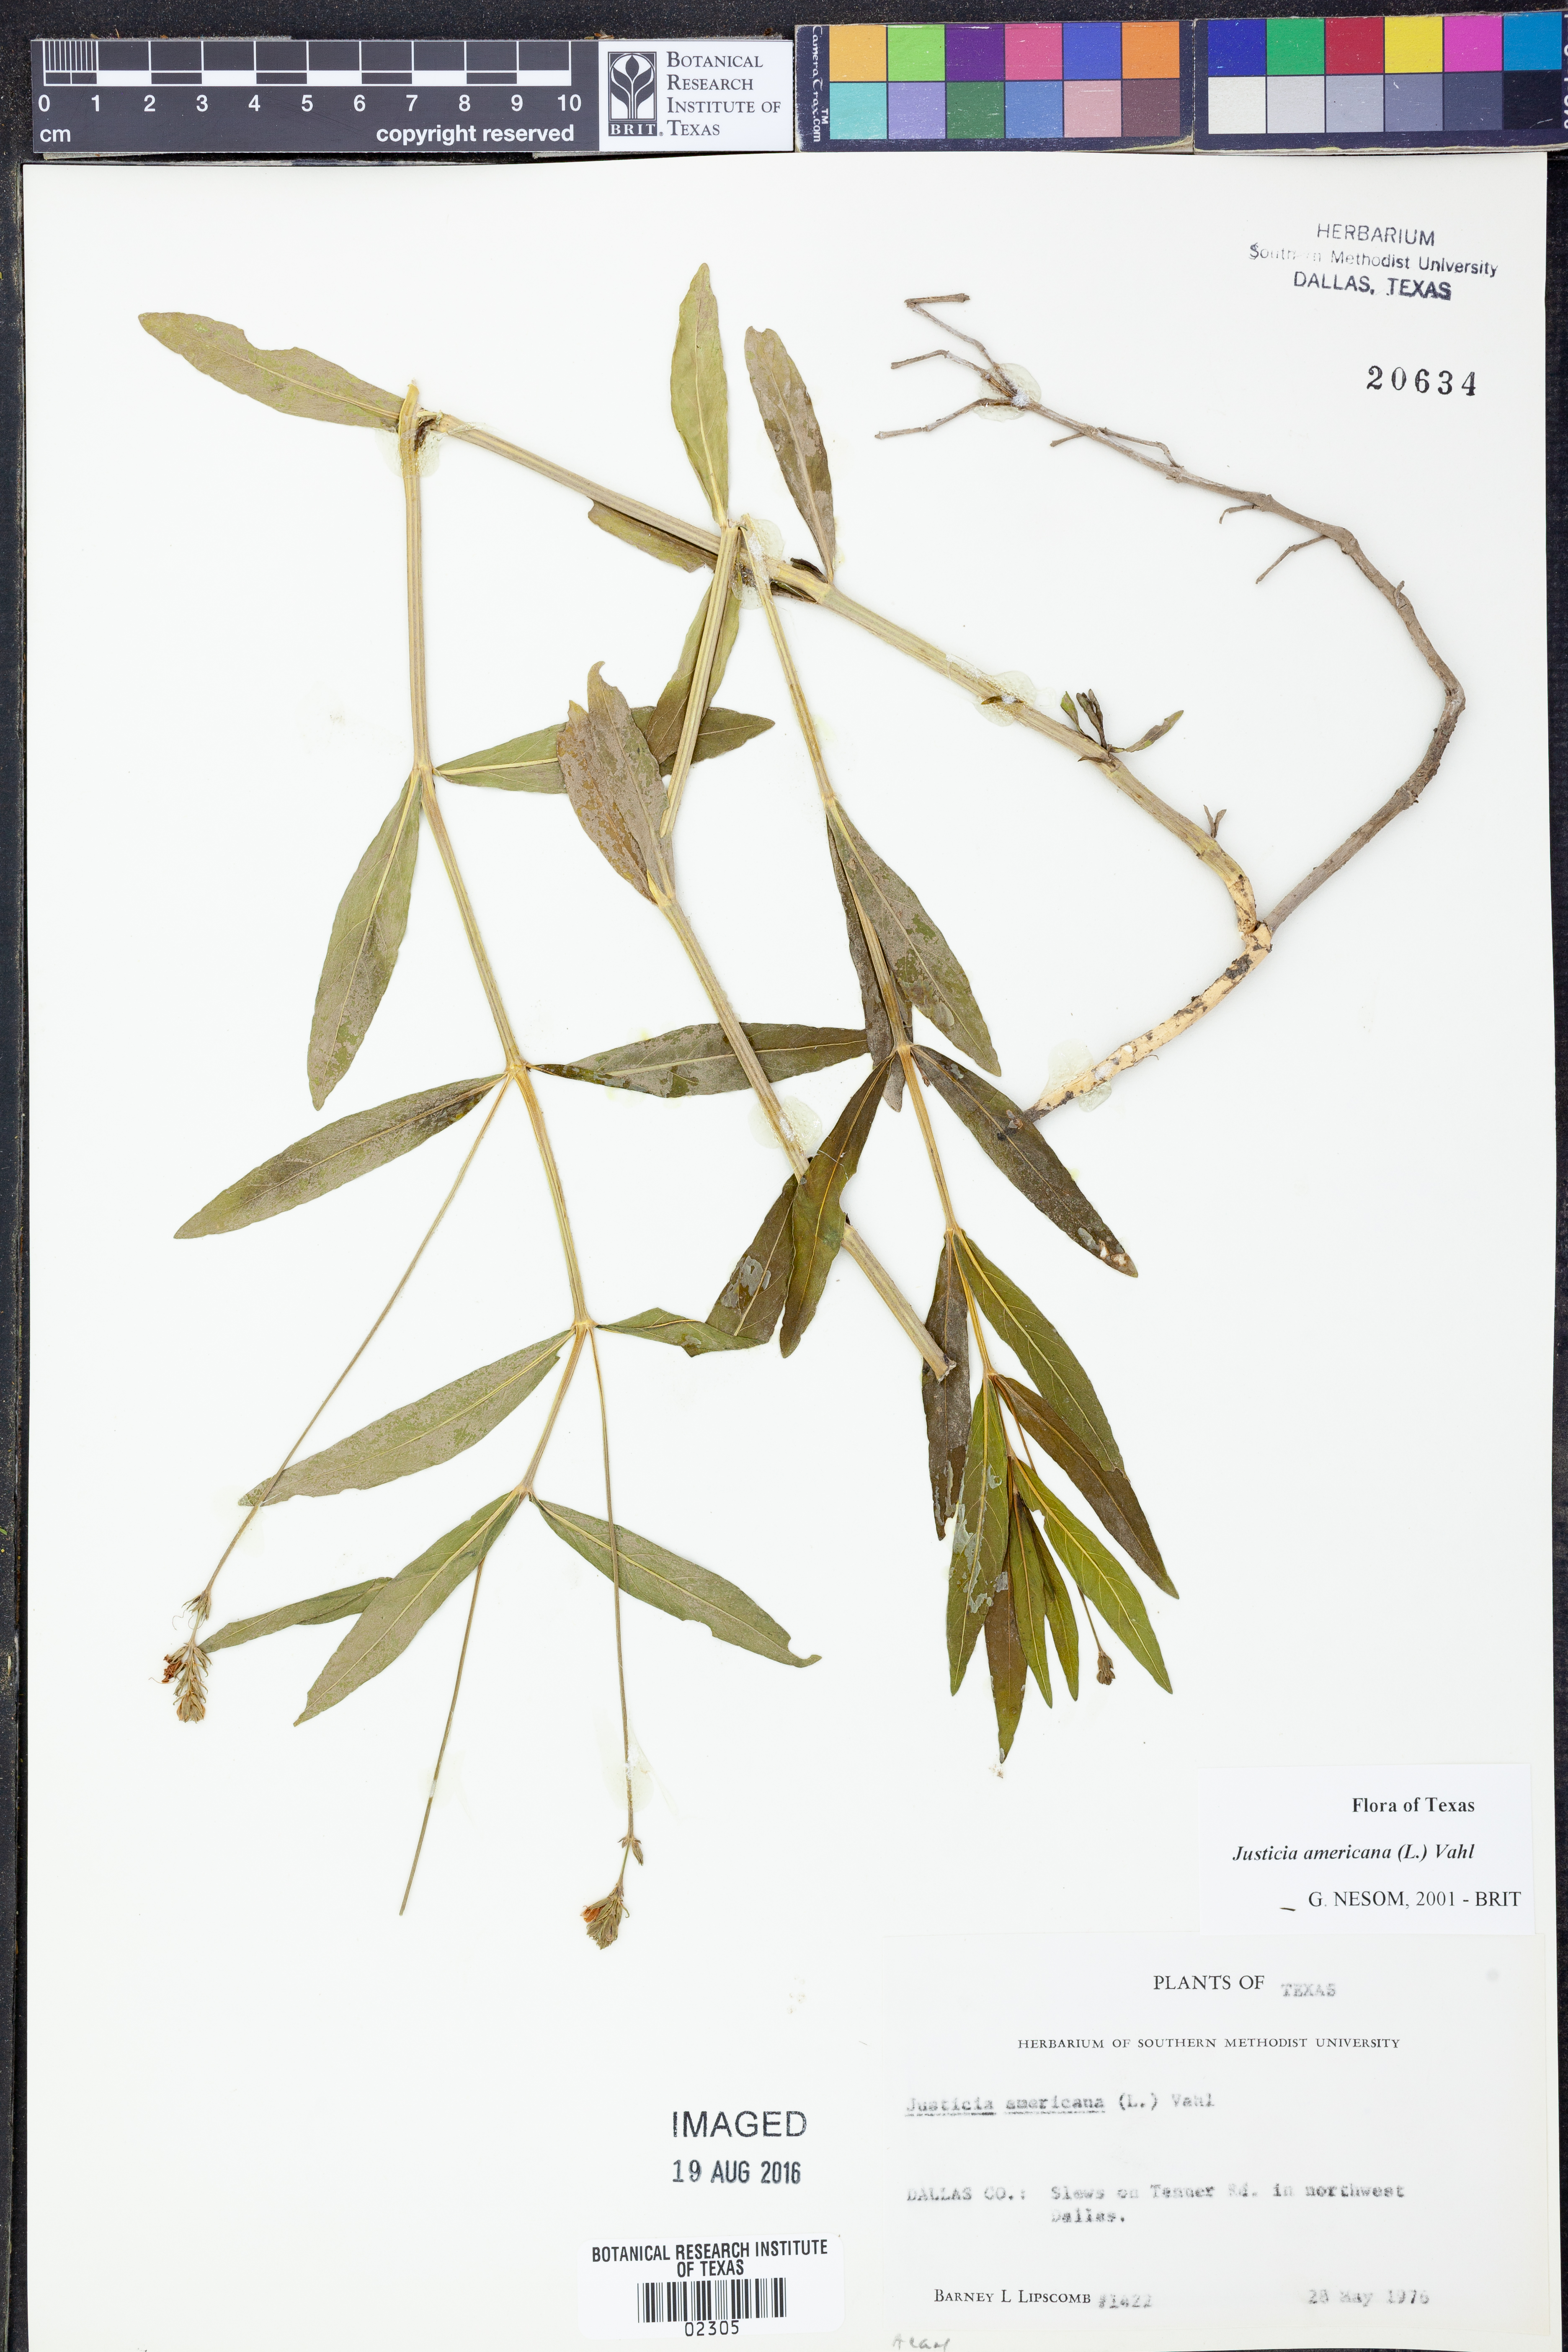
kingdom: Plantae
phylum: Tracheophyta
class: Magnoliopsida
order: Lamiales
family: Acanthaceae
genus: Dianthera
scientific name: Dianthera americana
